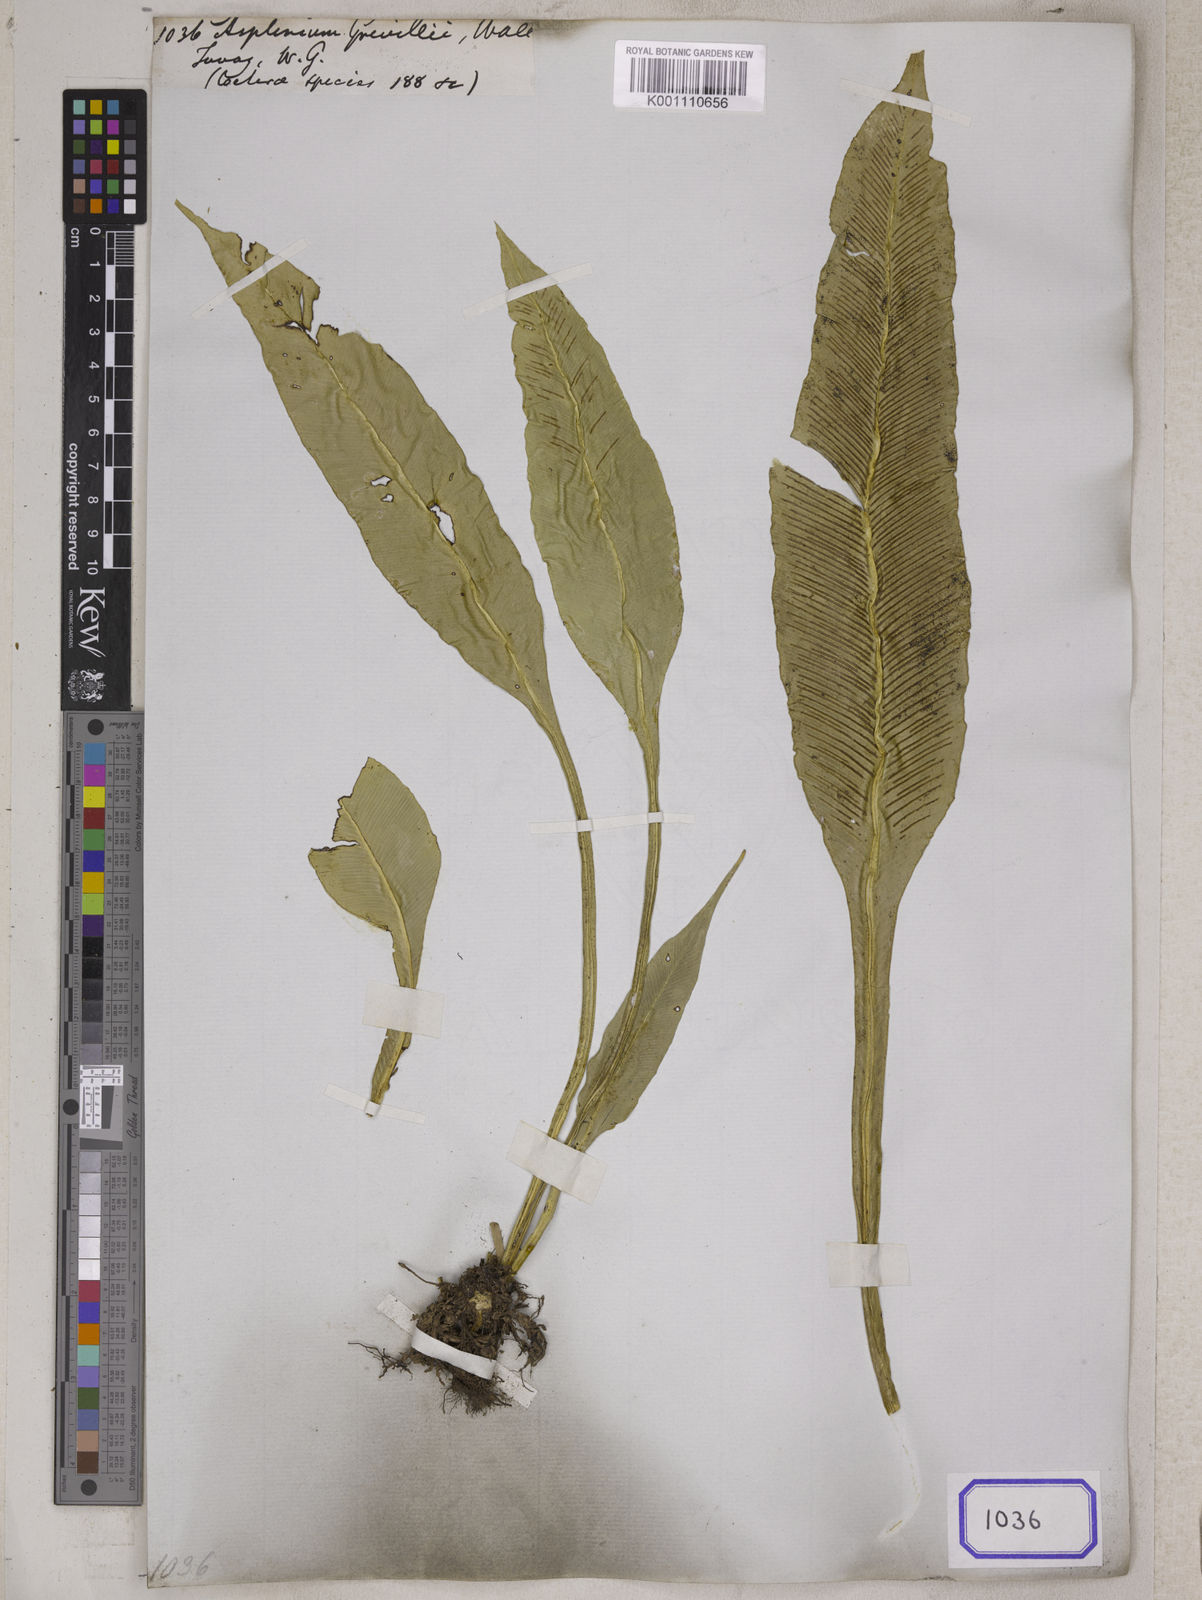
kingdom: Plantae
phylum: Tracheophyta
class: Polypodiopsida
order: Polypodiales
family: Aspleniaceae
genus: Asplenium
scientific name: Asplenium grevillei
